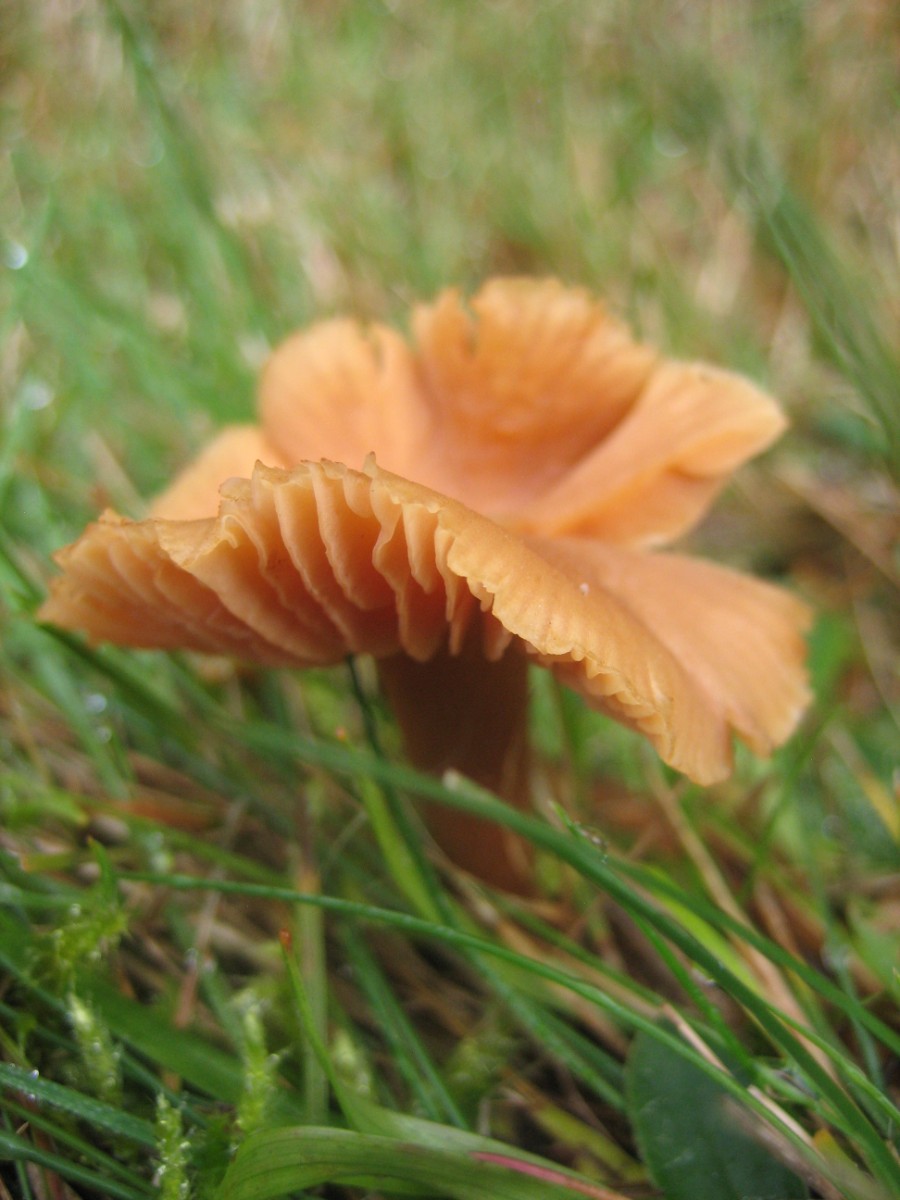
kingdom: Fungi
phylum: Basidiomycota
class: Agaricomycetes
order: Agaricales
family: Hydnangiaceae
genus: Laccaria
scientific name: Laccaria laccata
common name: rød ametysthat
